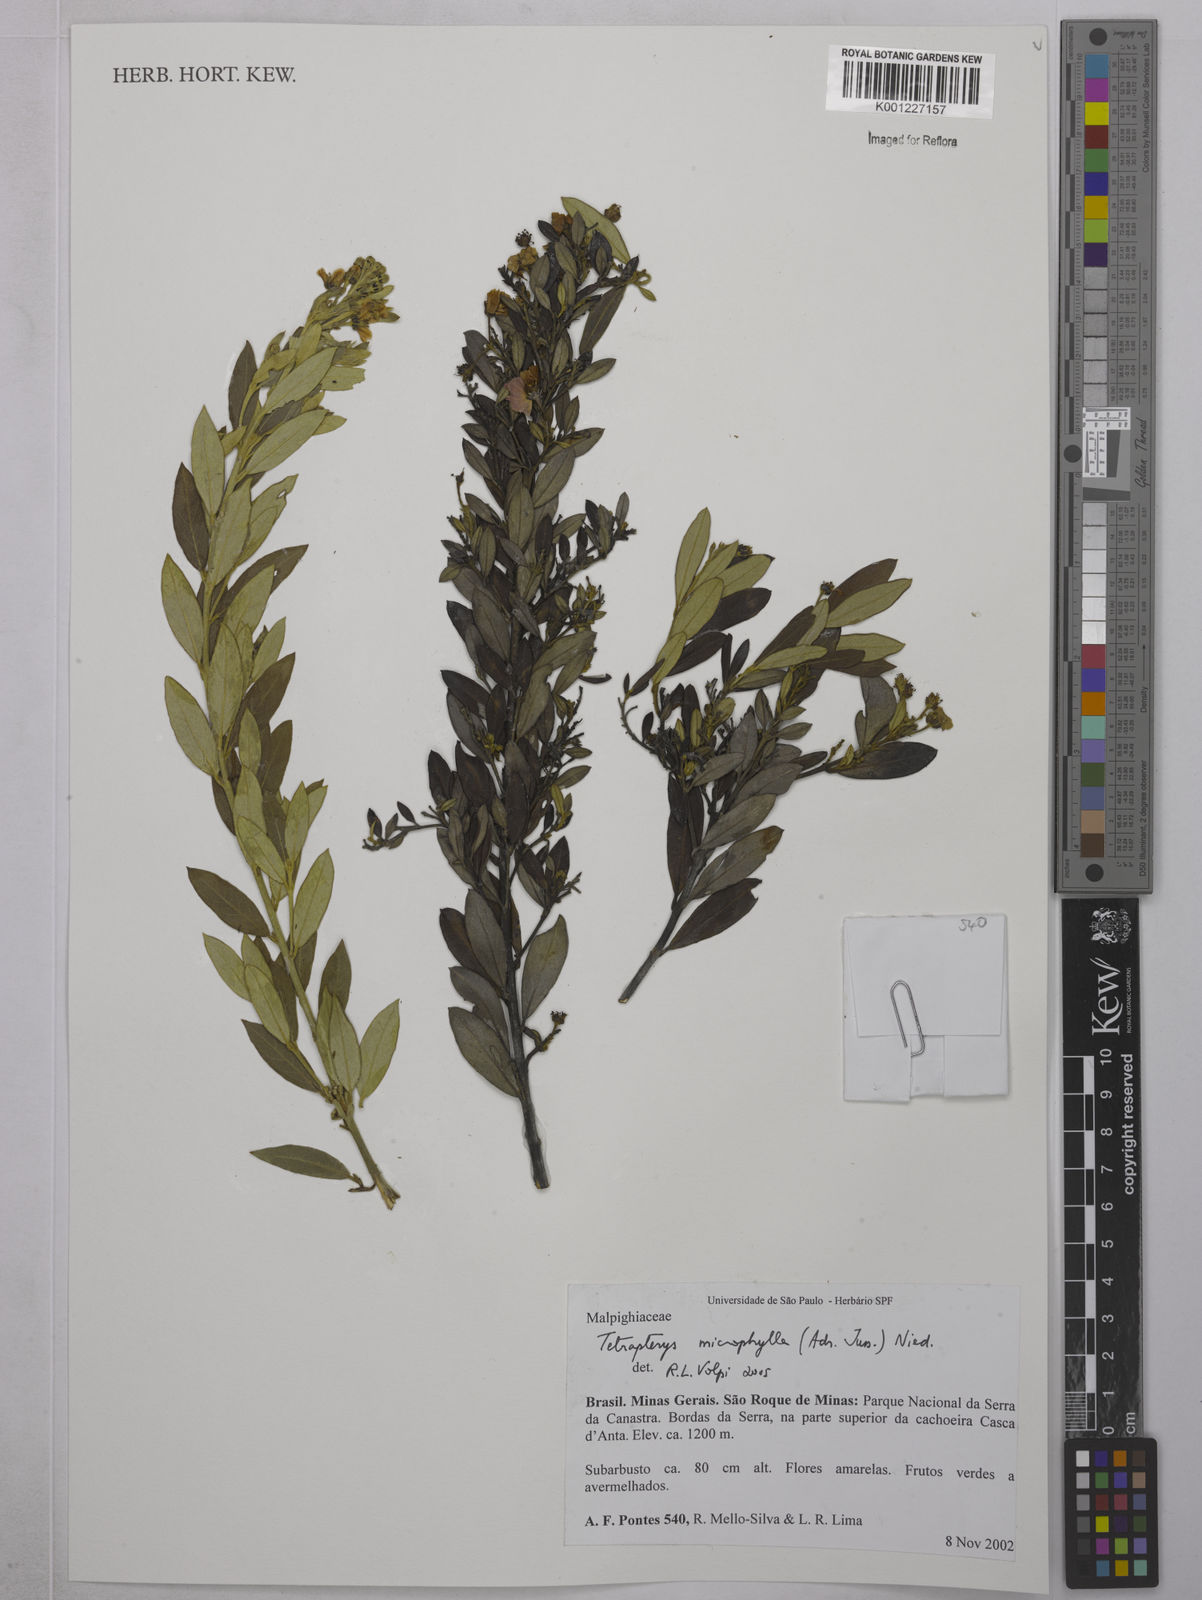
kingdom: Plantae
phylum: Tracheophyta
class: Magnoliopsida
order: Malpighiales
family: Malpighiaceae
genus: Glicophyllum
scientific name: Glicophyllum microphyllum
